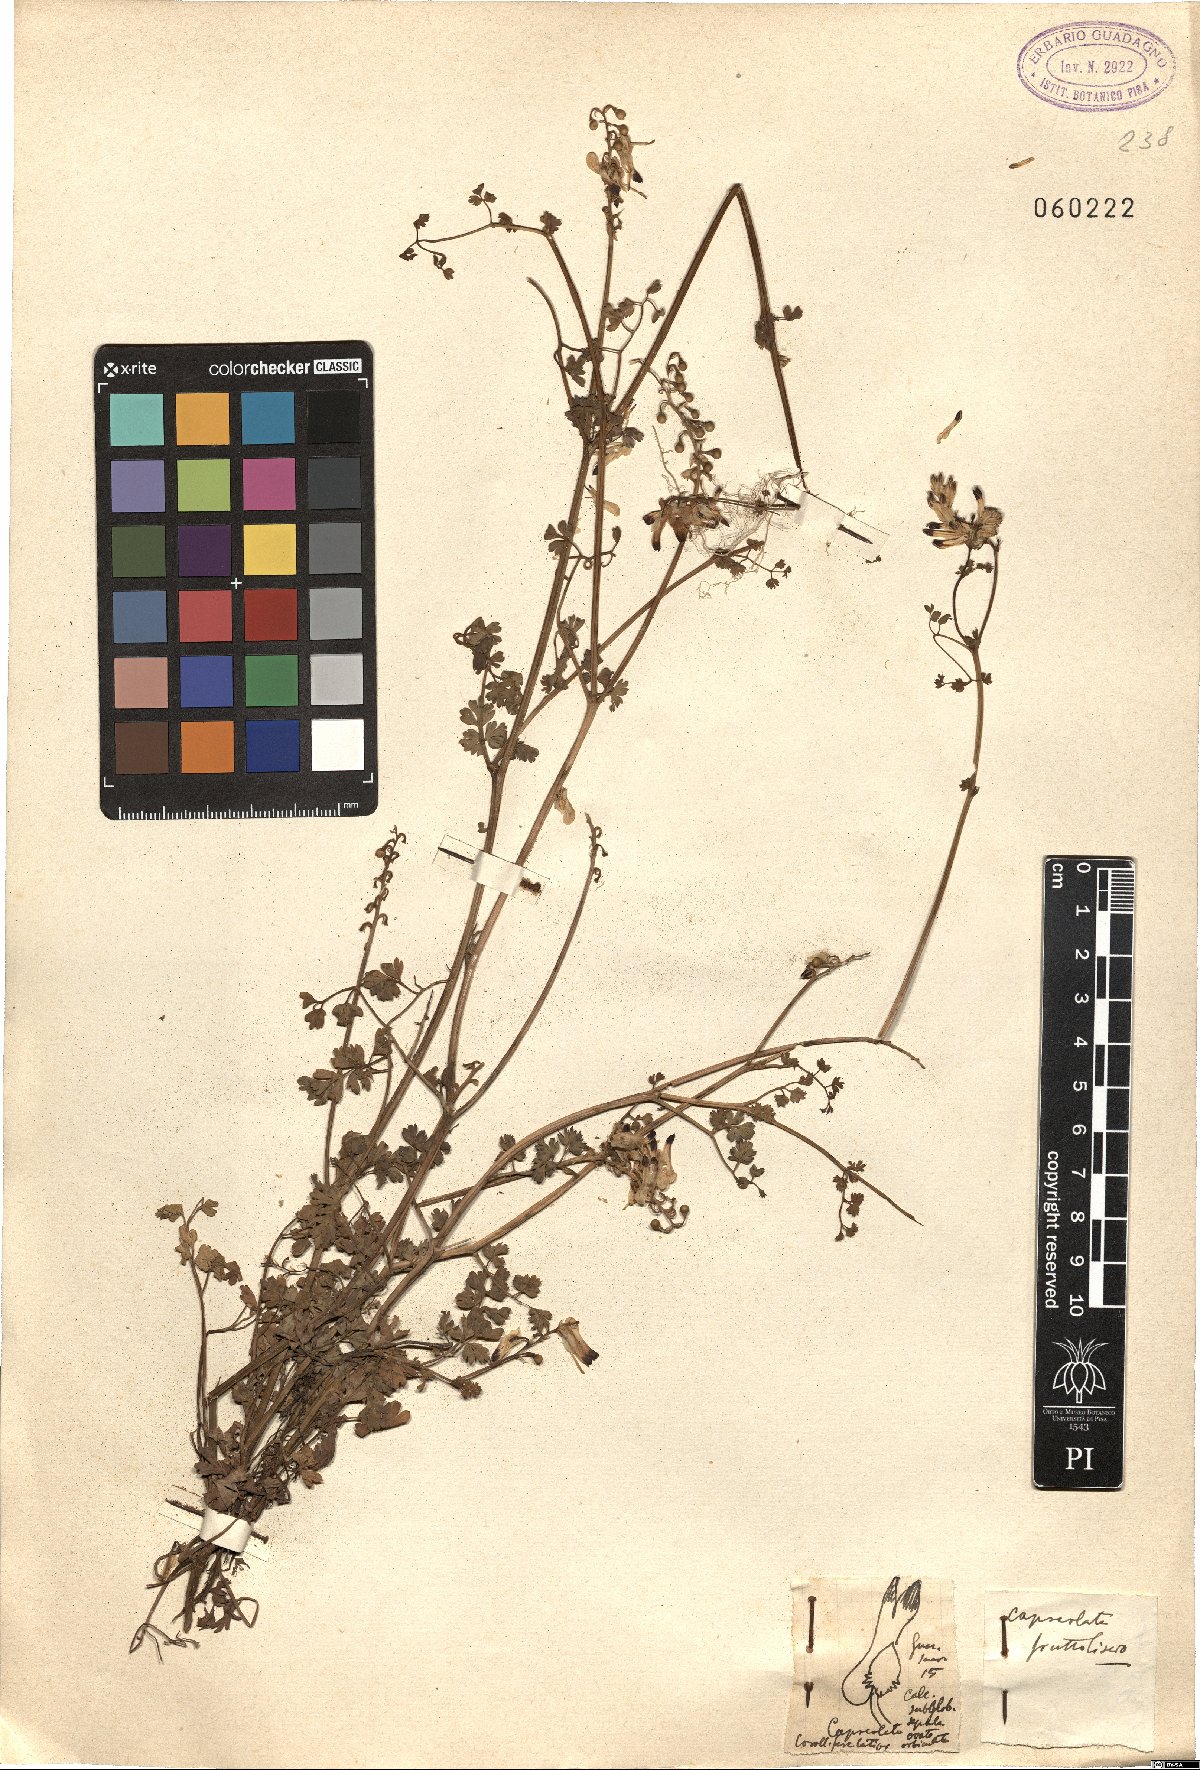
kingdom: Plantae
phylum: Tracheophyta
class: Magnoliopsida
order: Ranunculales
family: Papaveraceae
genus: Fumaria
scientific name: Fumaria
